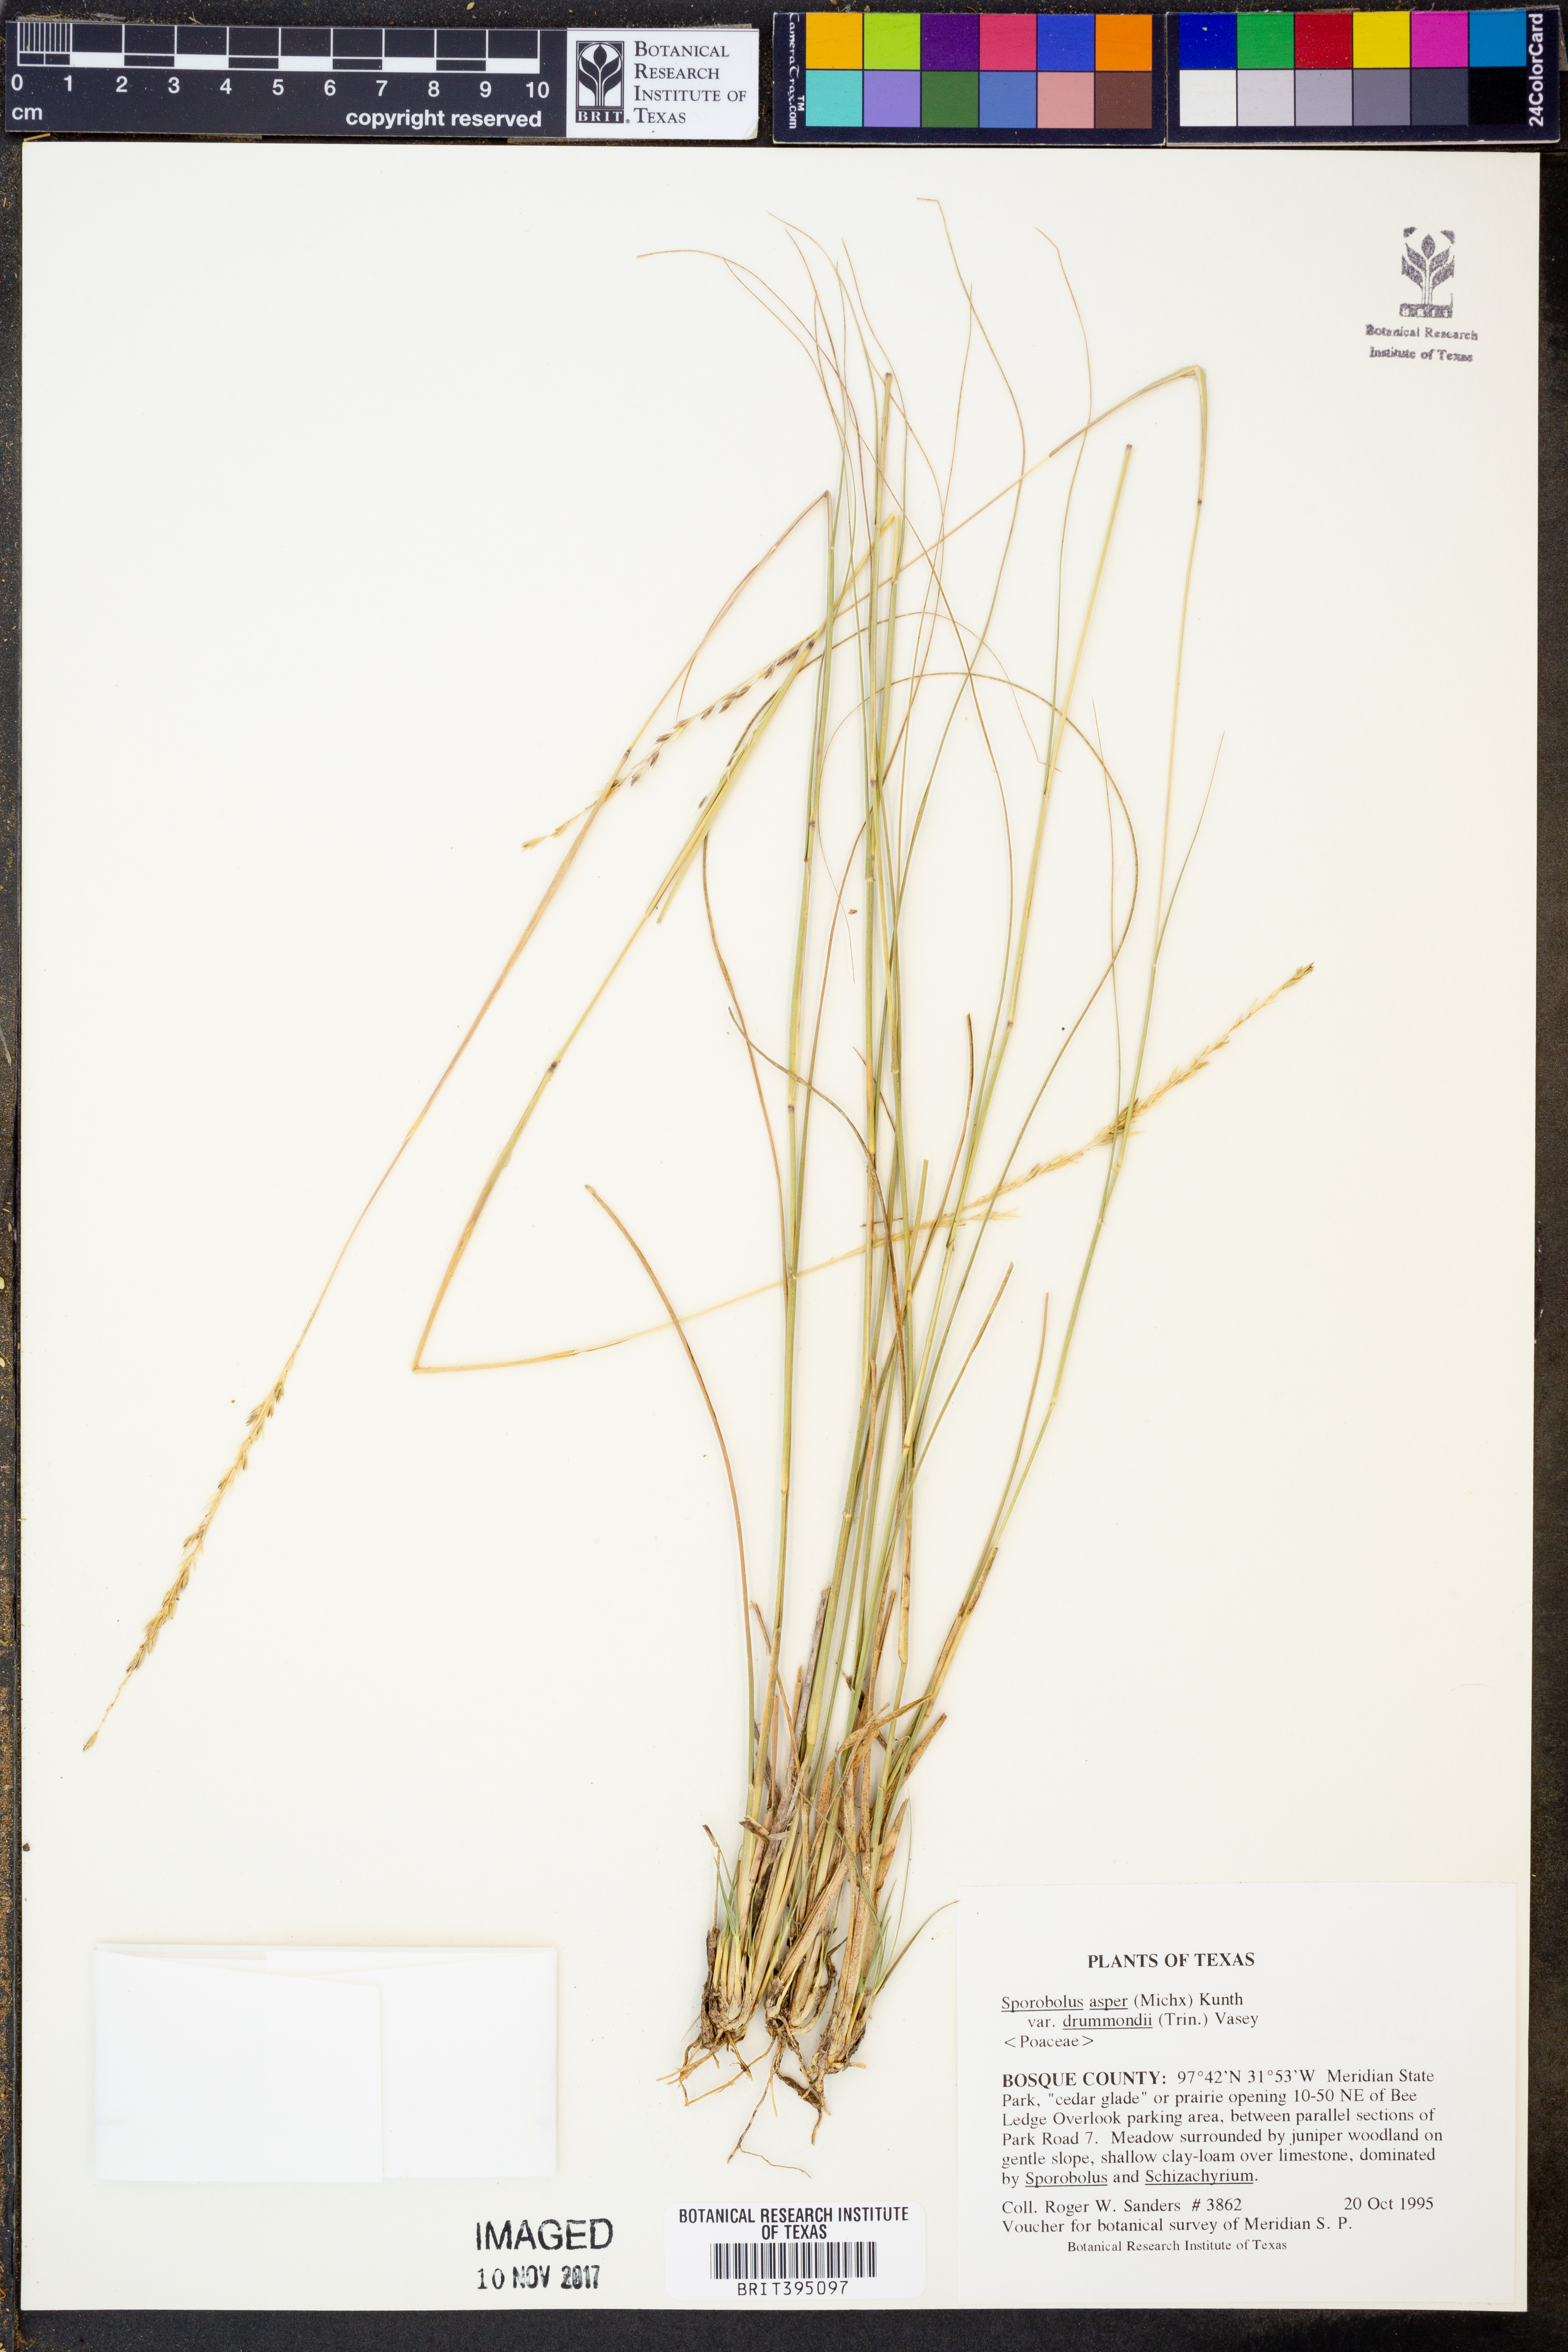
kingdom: Plantae
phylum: Tracheophyta
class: Liliopsida
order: Poales
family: Poaceae
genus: Sporobolus
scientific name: Sporobolus compositus
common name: Rough dropseed
